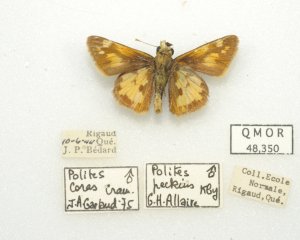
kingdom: Animalia
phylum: Arthropoda
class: Insecta
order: Lepidoptera
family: Hesperiidae
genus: Polites
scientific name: Polites coras
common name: Peck's Skipper
